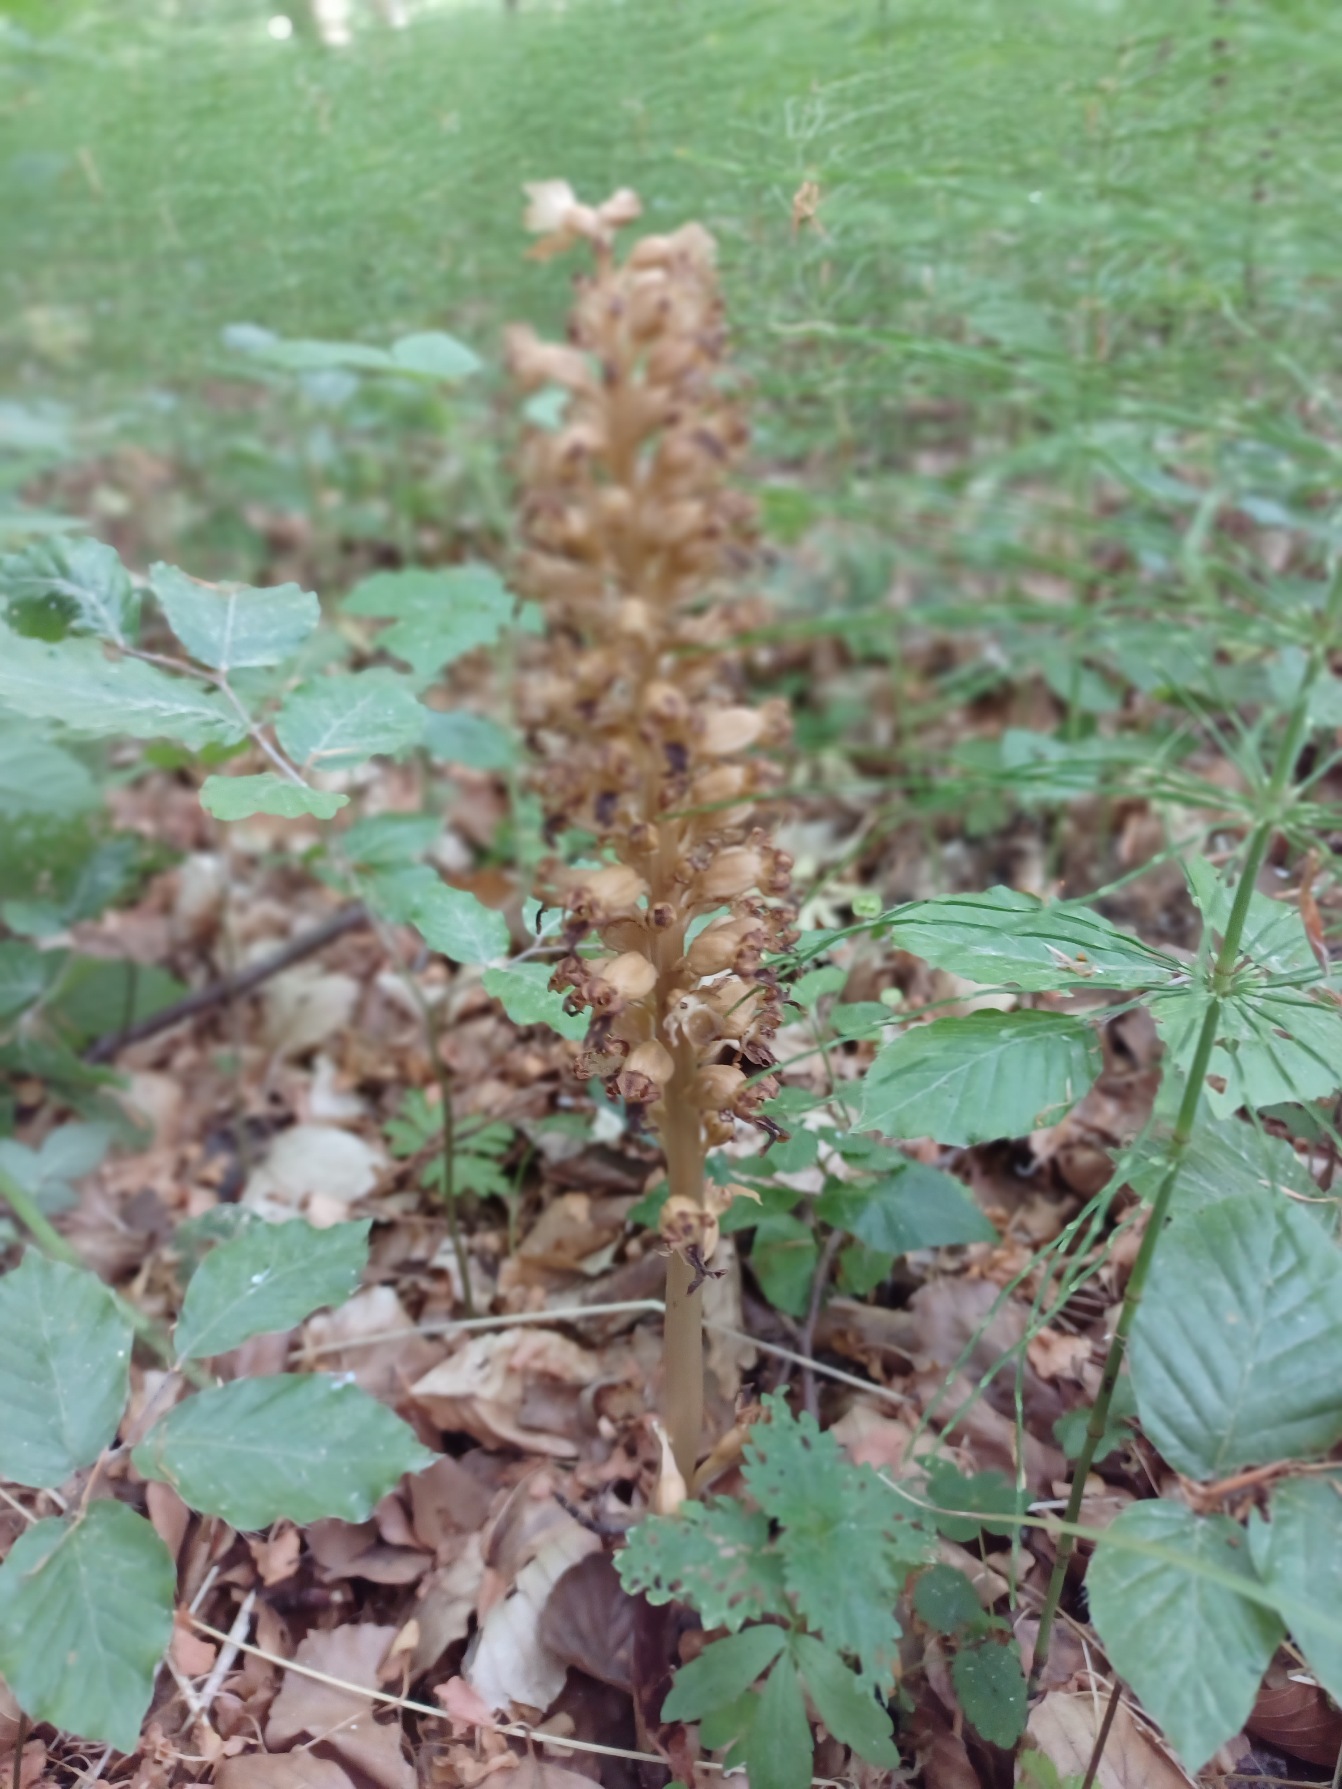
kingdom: Plantae
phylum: Tracheophyta
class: Liliopsida
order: Asparagales
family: Orchidaceae
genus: Neottia
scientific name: Neottia nidus-avis
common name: Rederod
